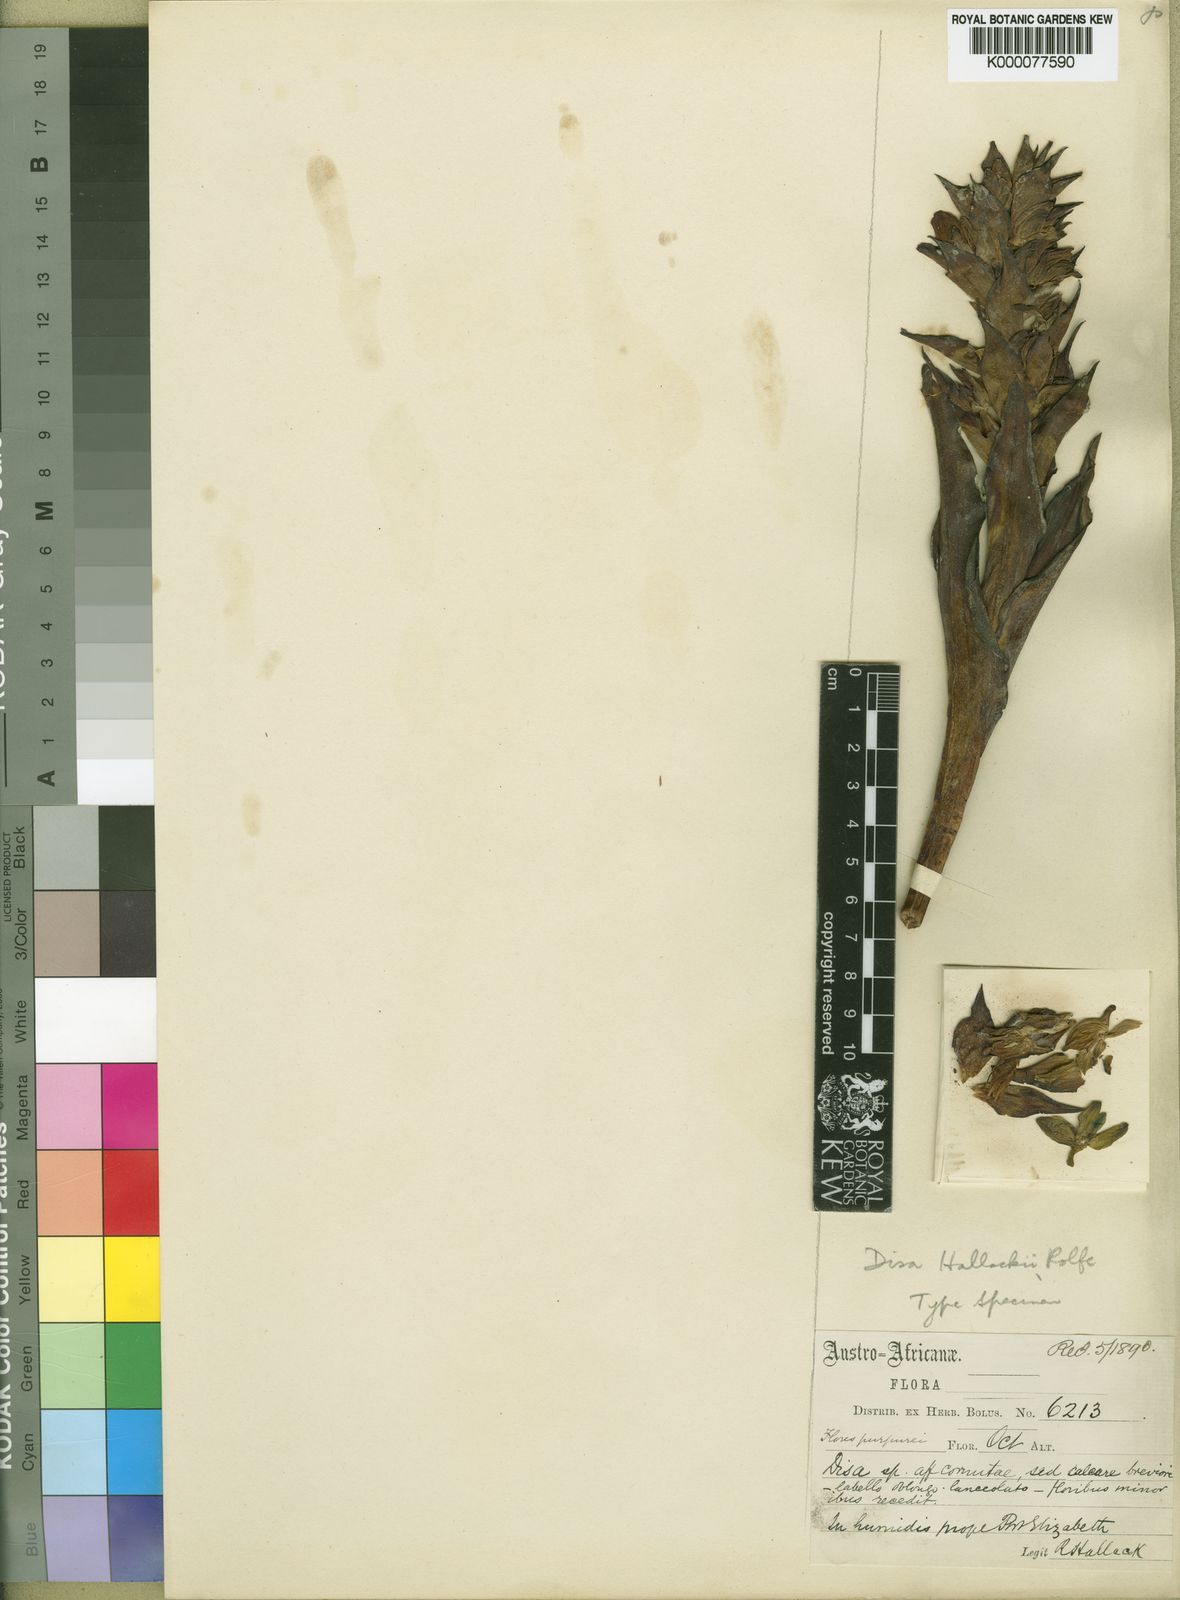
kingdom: Plantae
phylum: Tracheophyta
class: Liliopsida
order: Asparagales
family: Orchidaceae
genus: Disa
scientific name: Disa hallackii
